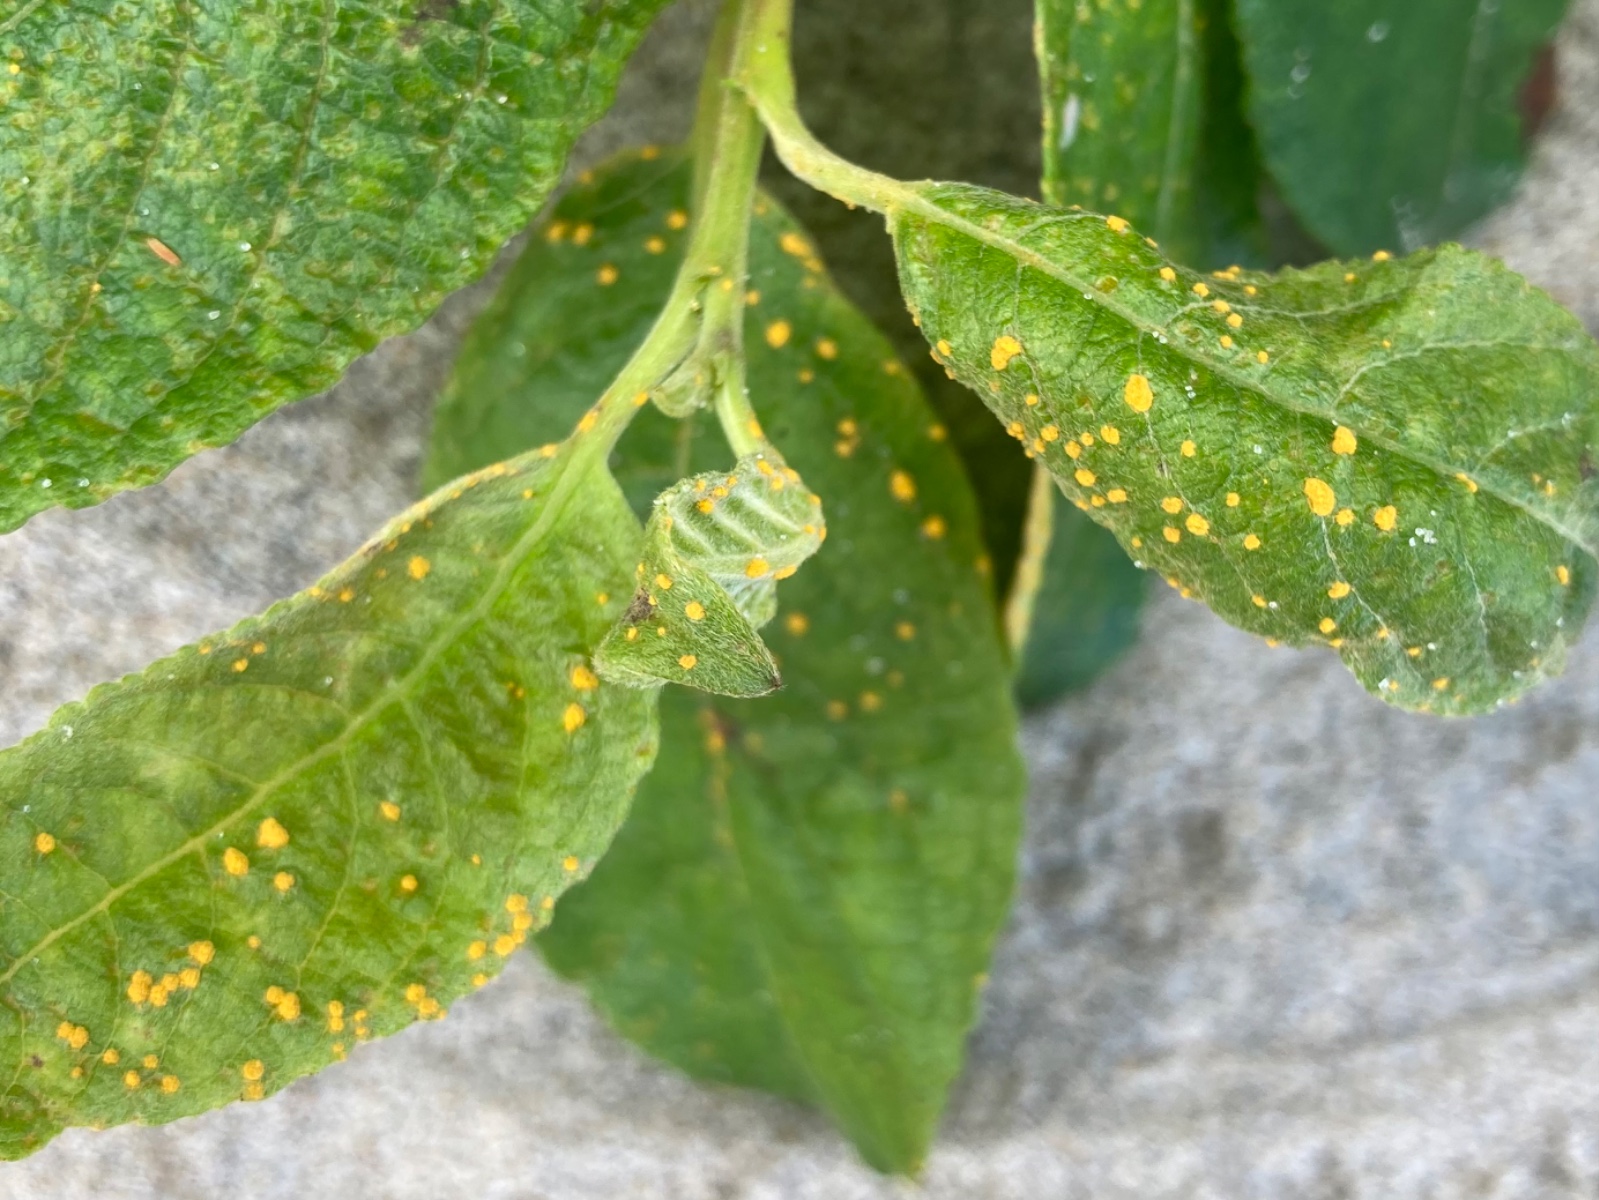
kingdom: Fungi
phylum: Basidiomycota
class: Pucciniomycetes
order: Pucciniales
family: Melampsoraceae
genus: Melampsora
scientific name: Melampsora epitea
